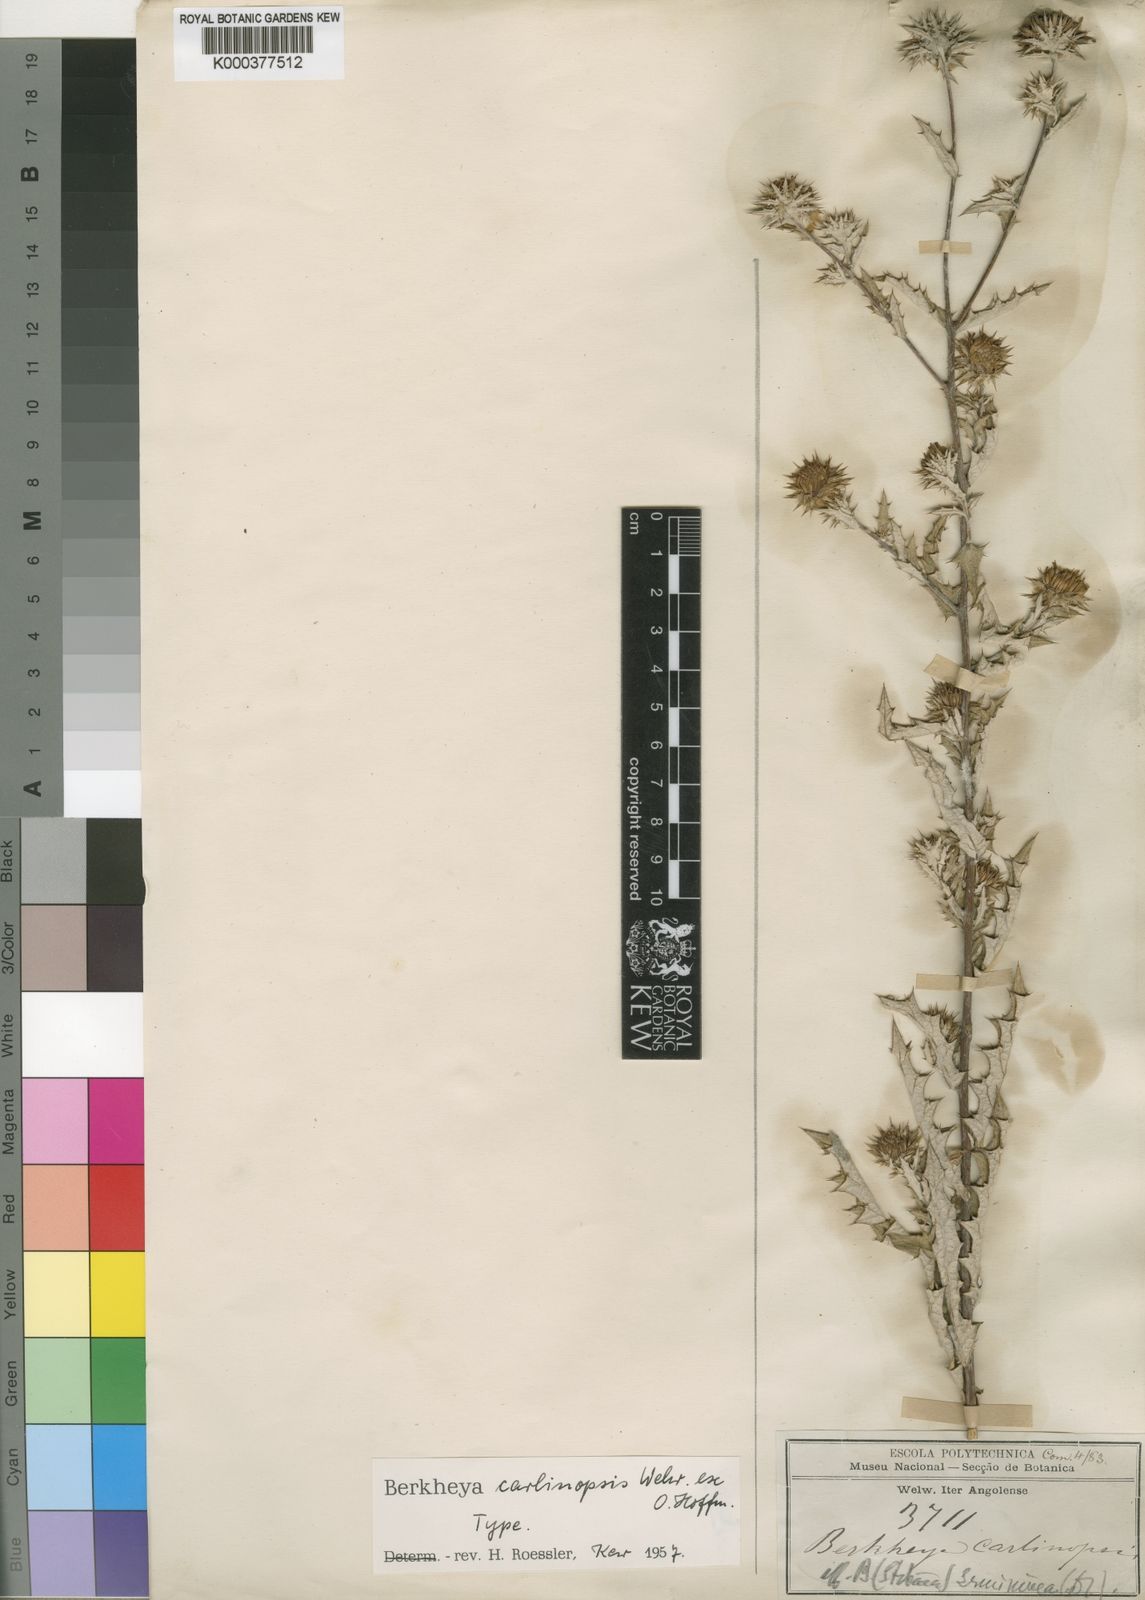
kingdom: Plantae
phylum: Tracheophyta
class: Magnoliopsida
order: Asterales
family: Asteraceae
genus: Berkheya
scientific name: Berkheya carlinopsis
